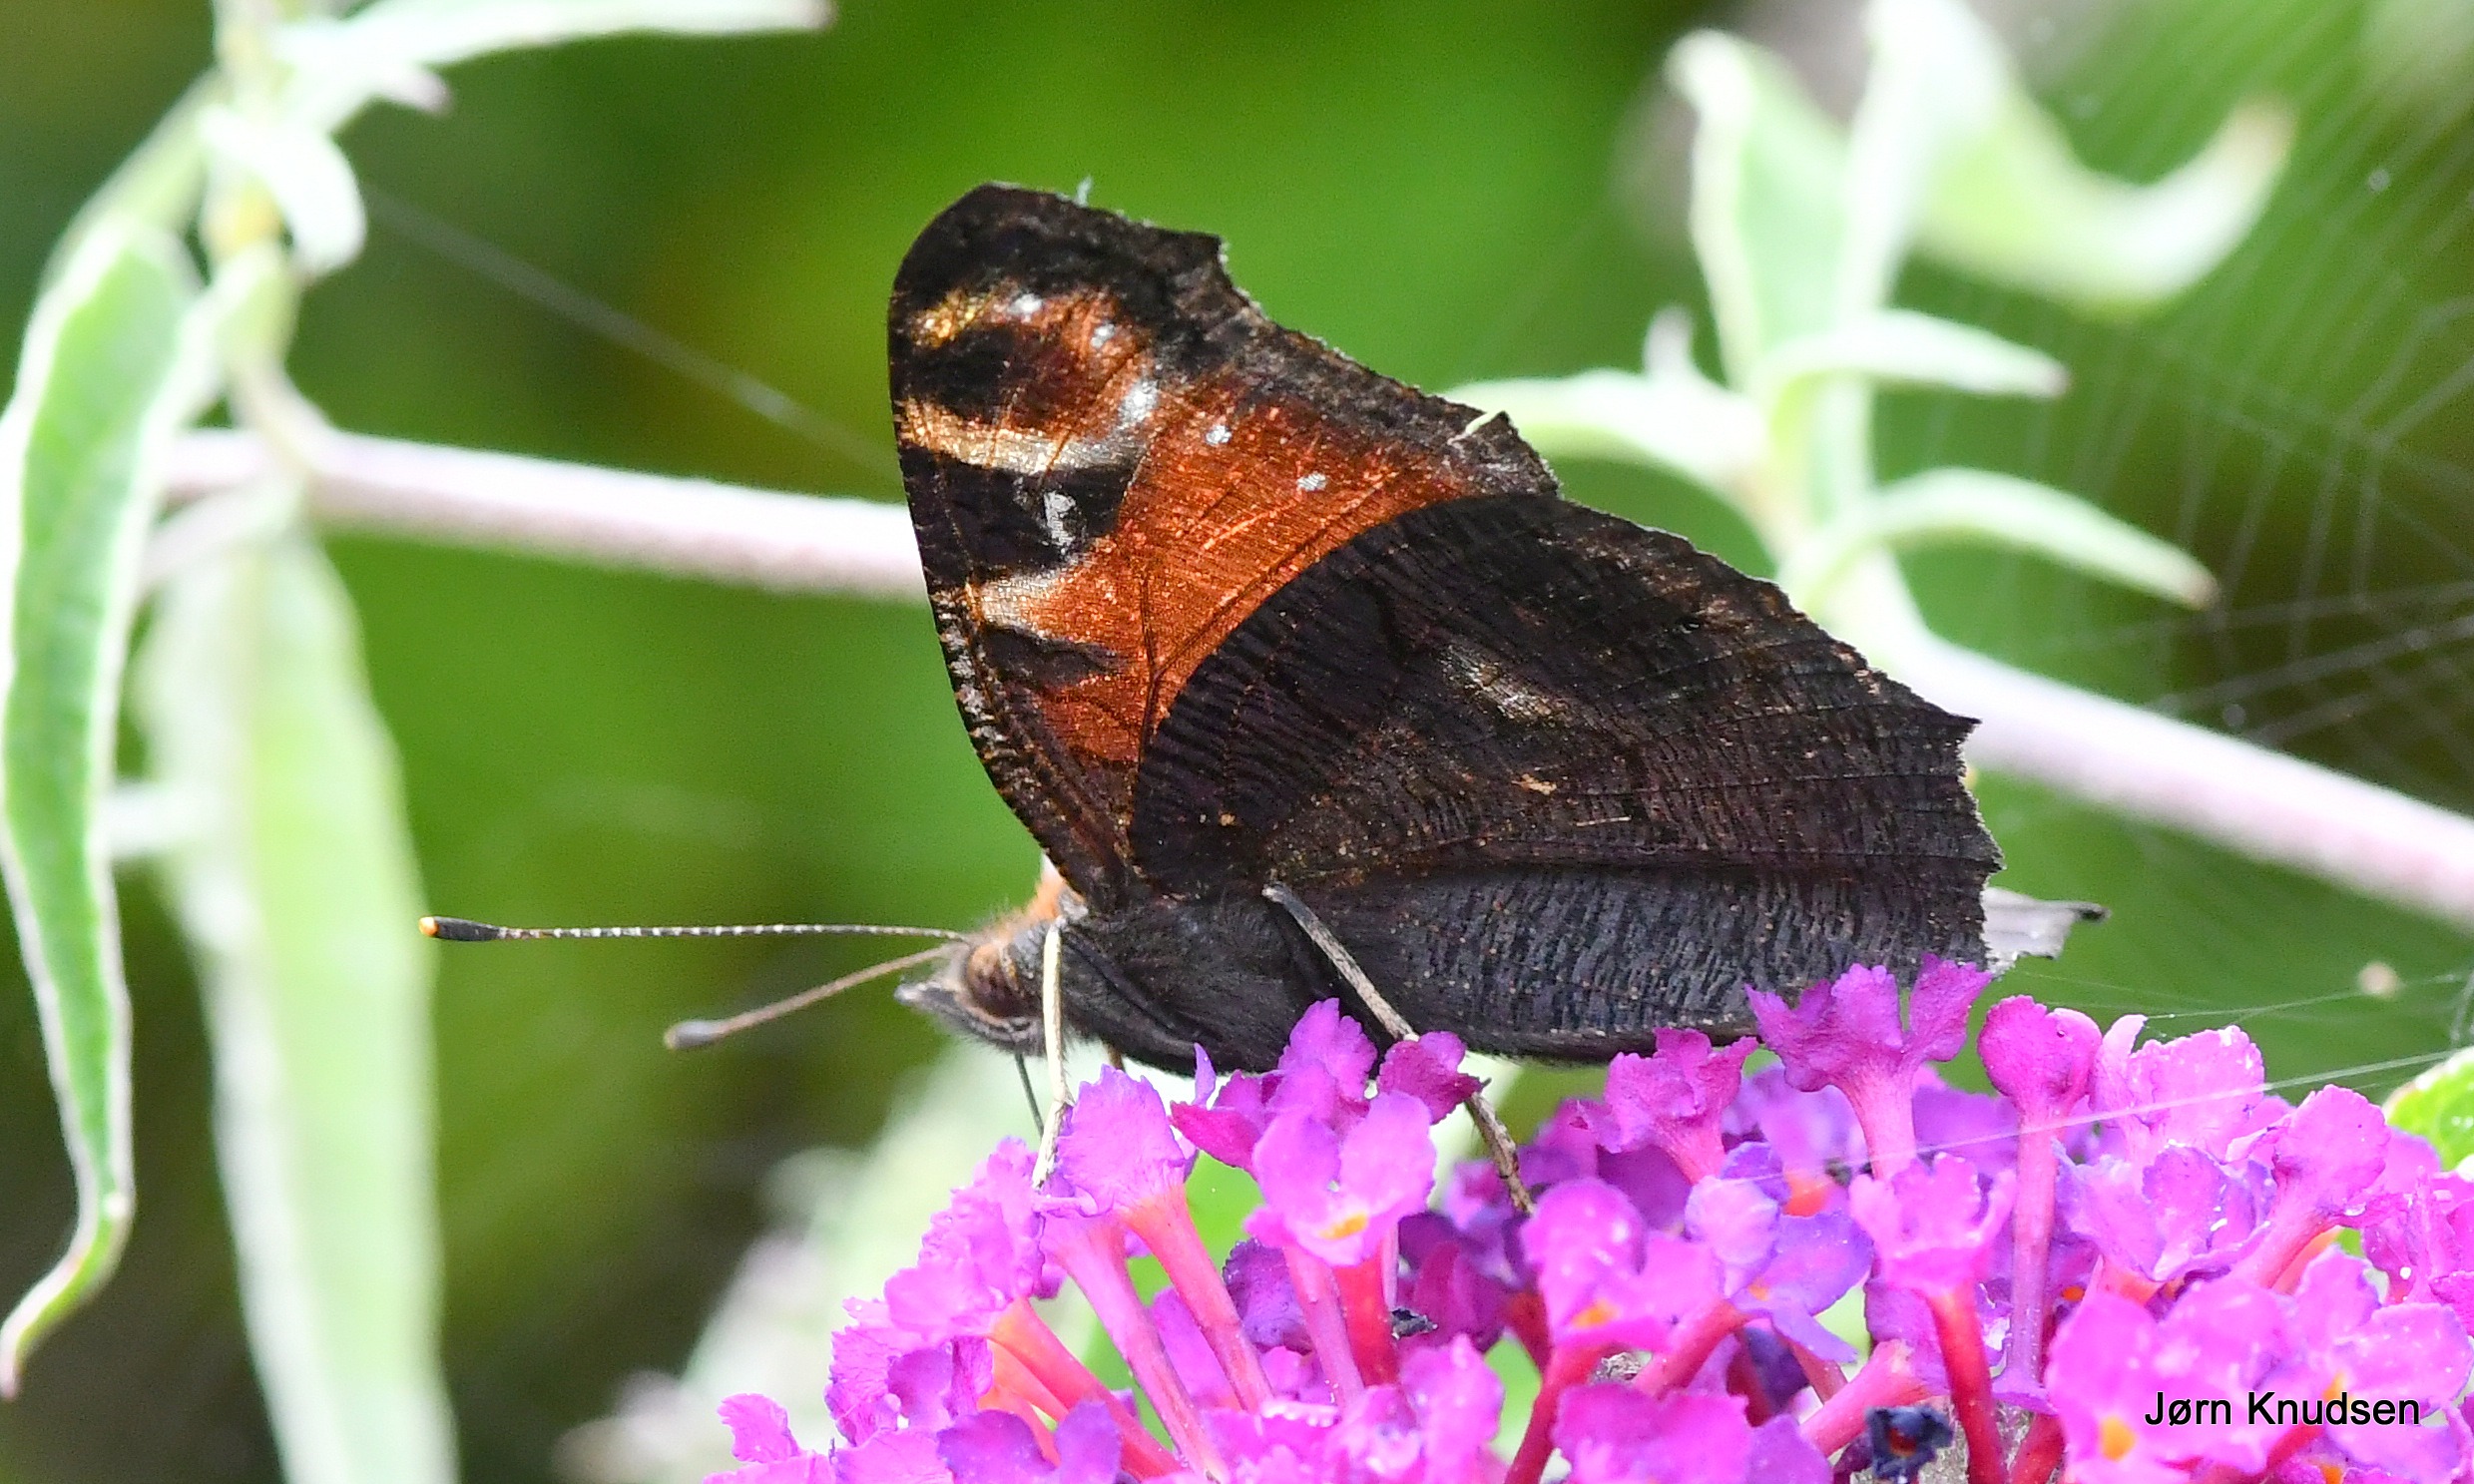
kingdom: Animalia
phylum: Arthropoda
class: Insecta
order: Lepidoptera
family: Nymphalidae
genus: Aglais
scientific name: Aglais io
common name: Dagpåfugleøje
